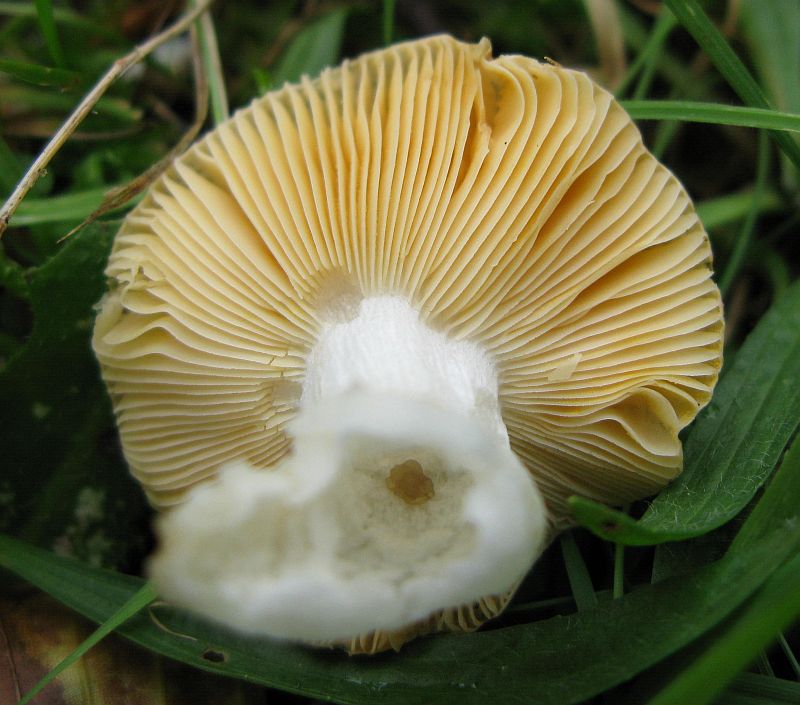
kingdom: Fungi
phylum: Basidiomycota
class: Agaricomycetes
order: Russulales
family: Russulaceae
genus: Russula
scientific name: Russula
